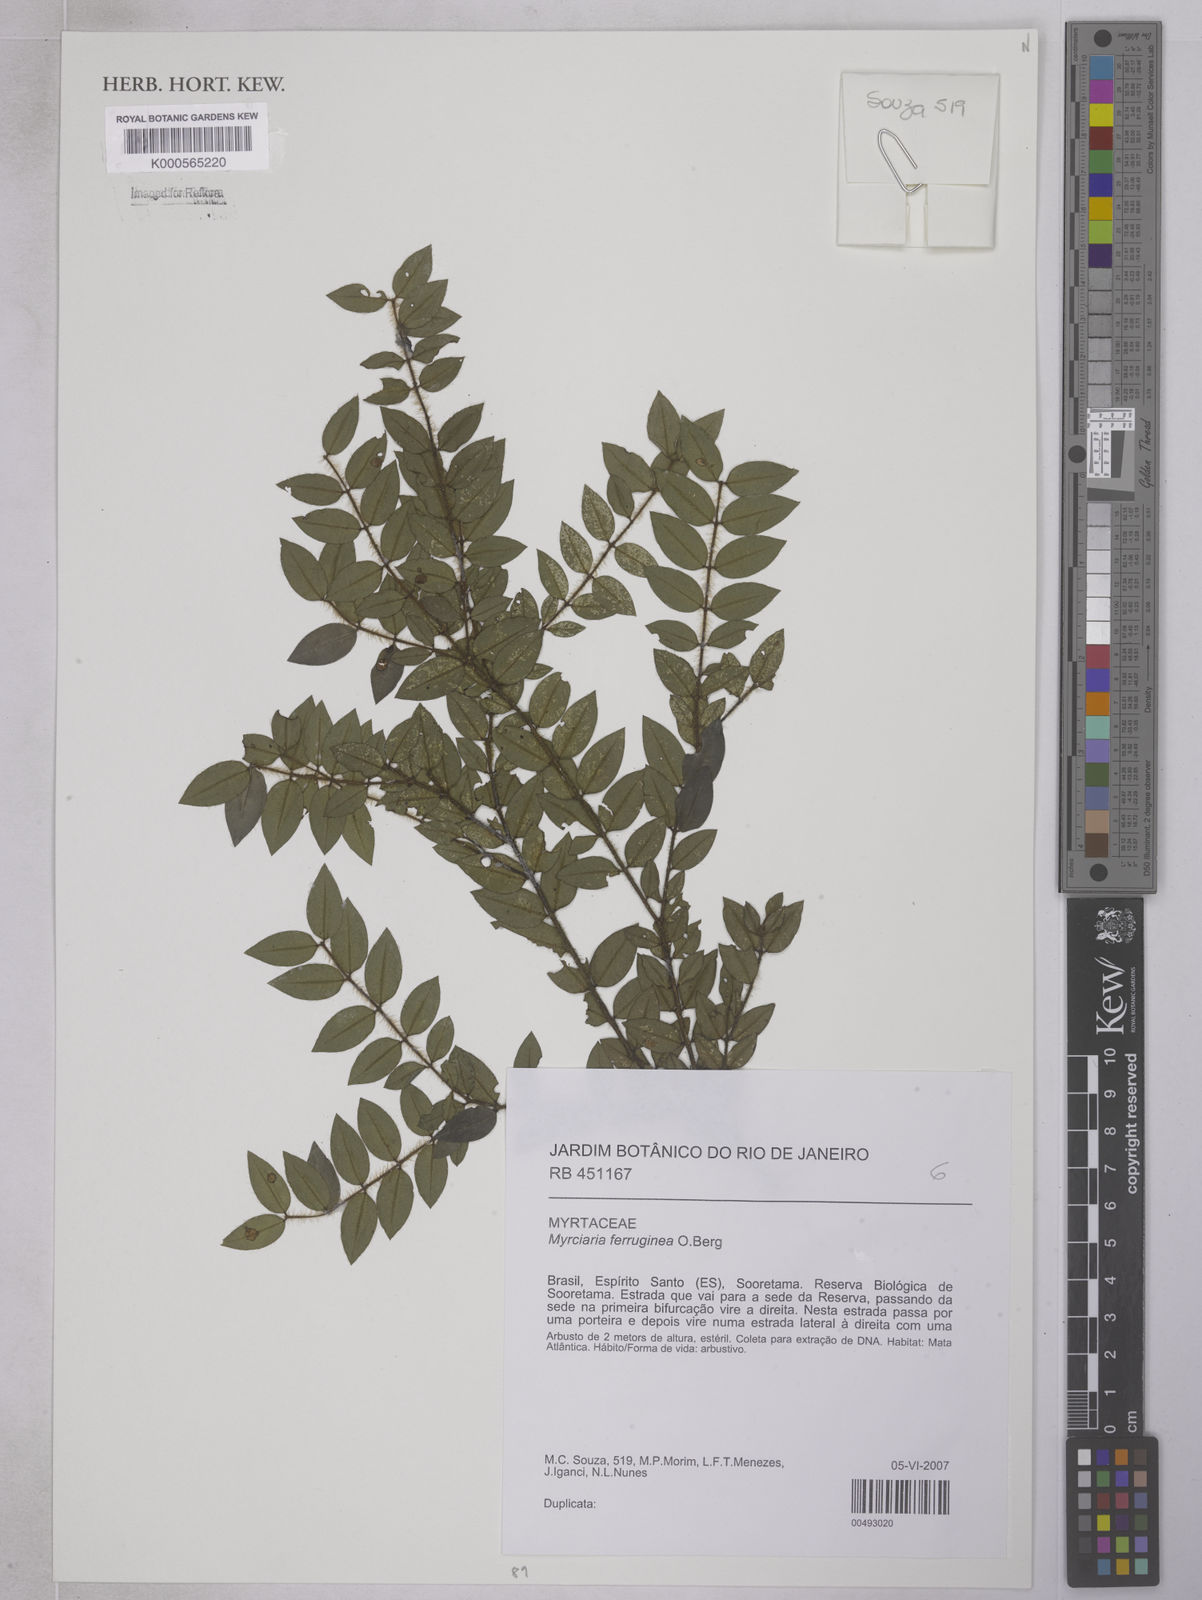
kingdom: Plantae
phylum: Tracheophyta
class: Magnoliopsida
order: Myrtales
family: Myrtaceae
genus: Myrciaria
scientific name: Myrciaria ferruginea
